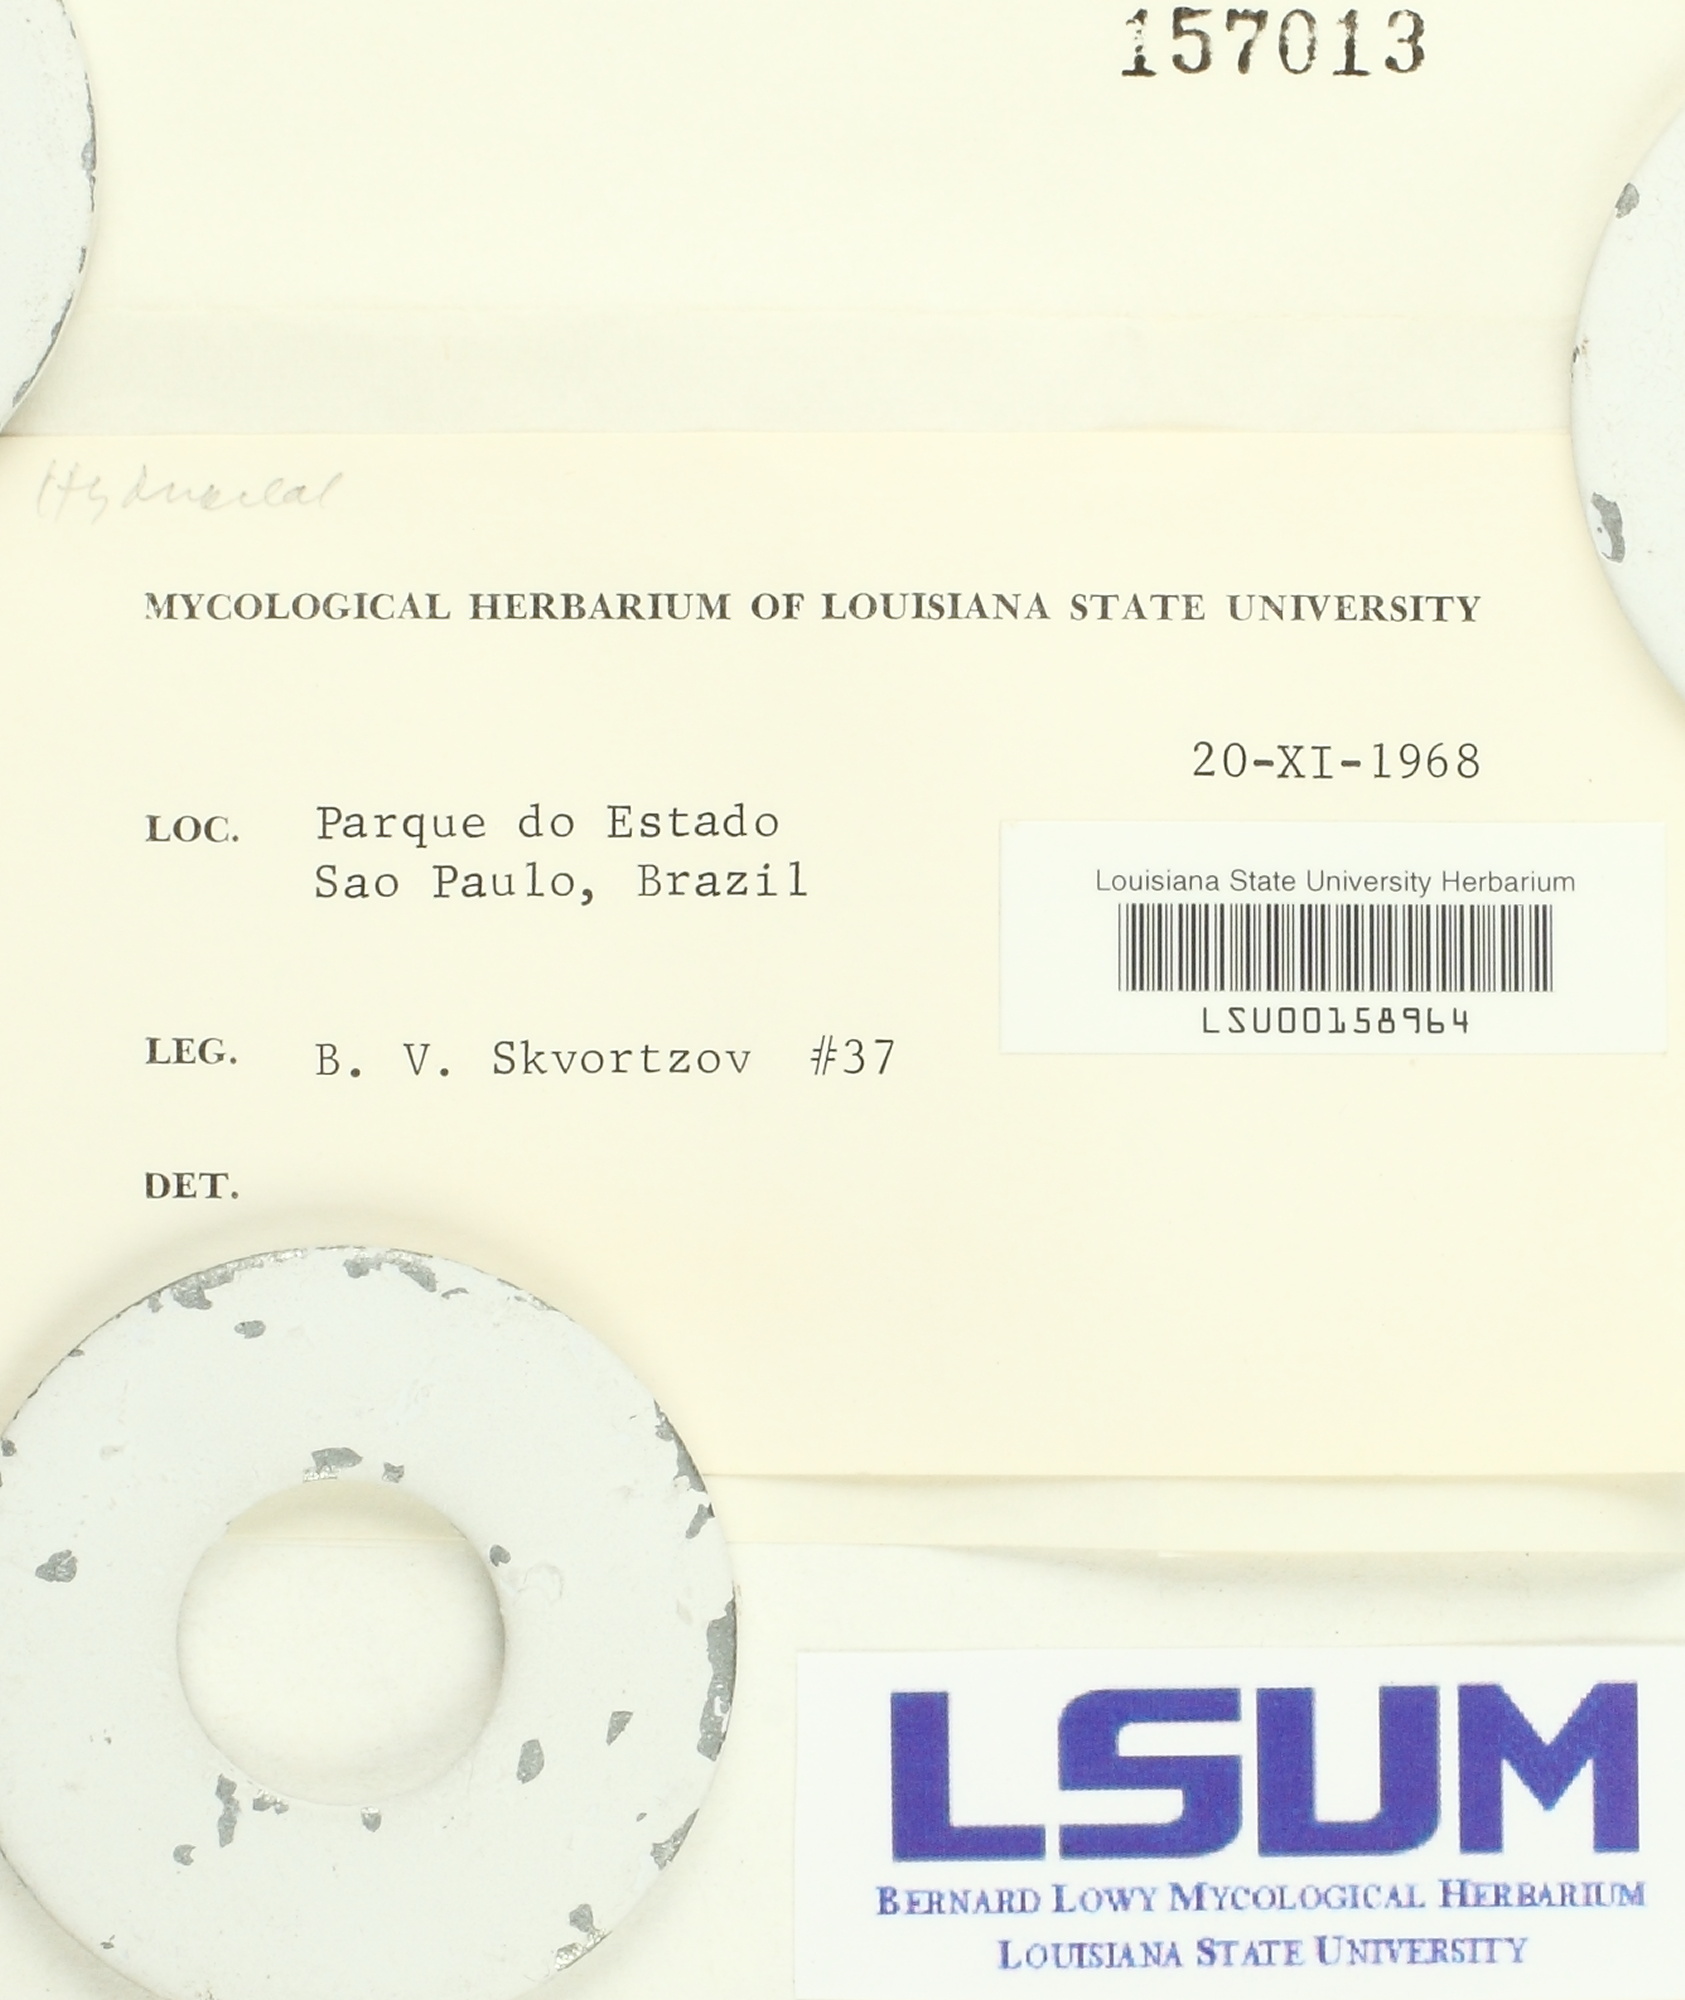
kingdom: Fungi
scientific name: Fungi
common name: Fungi
